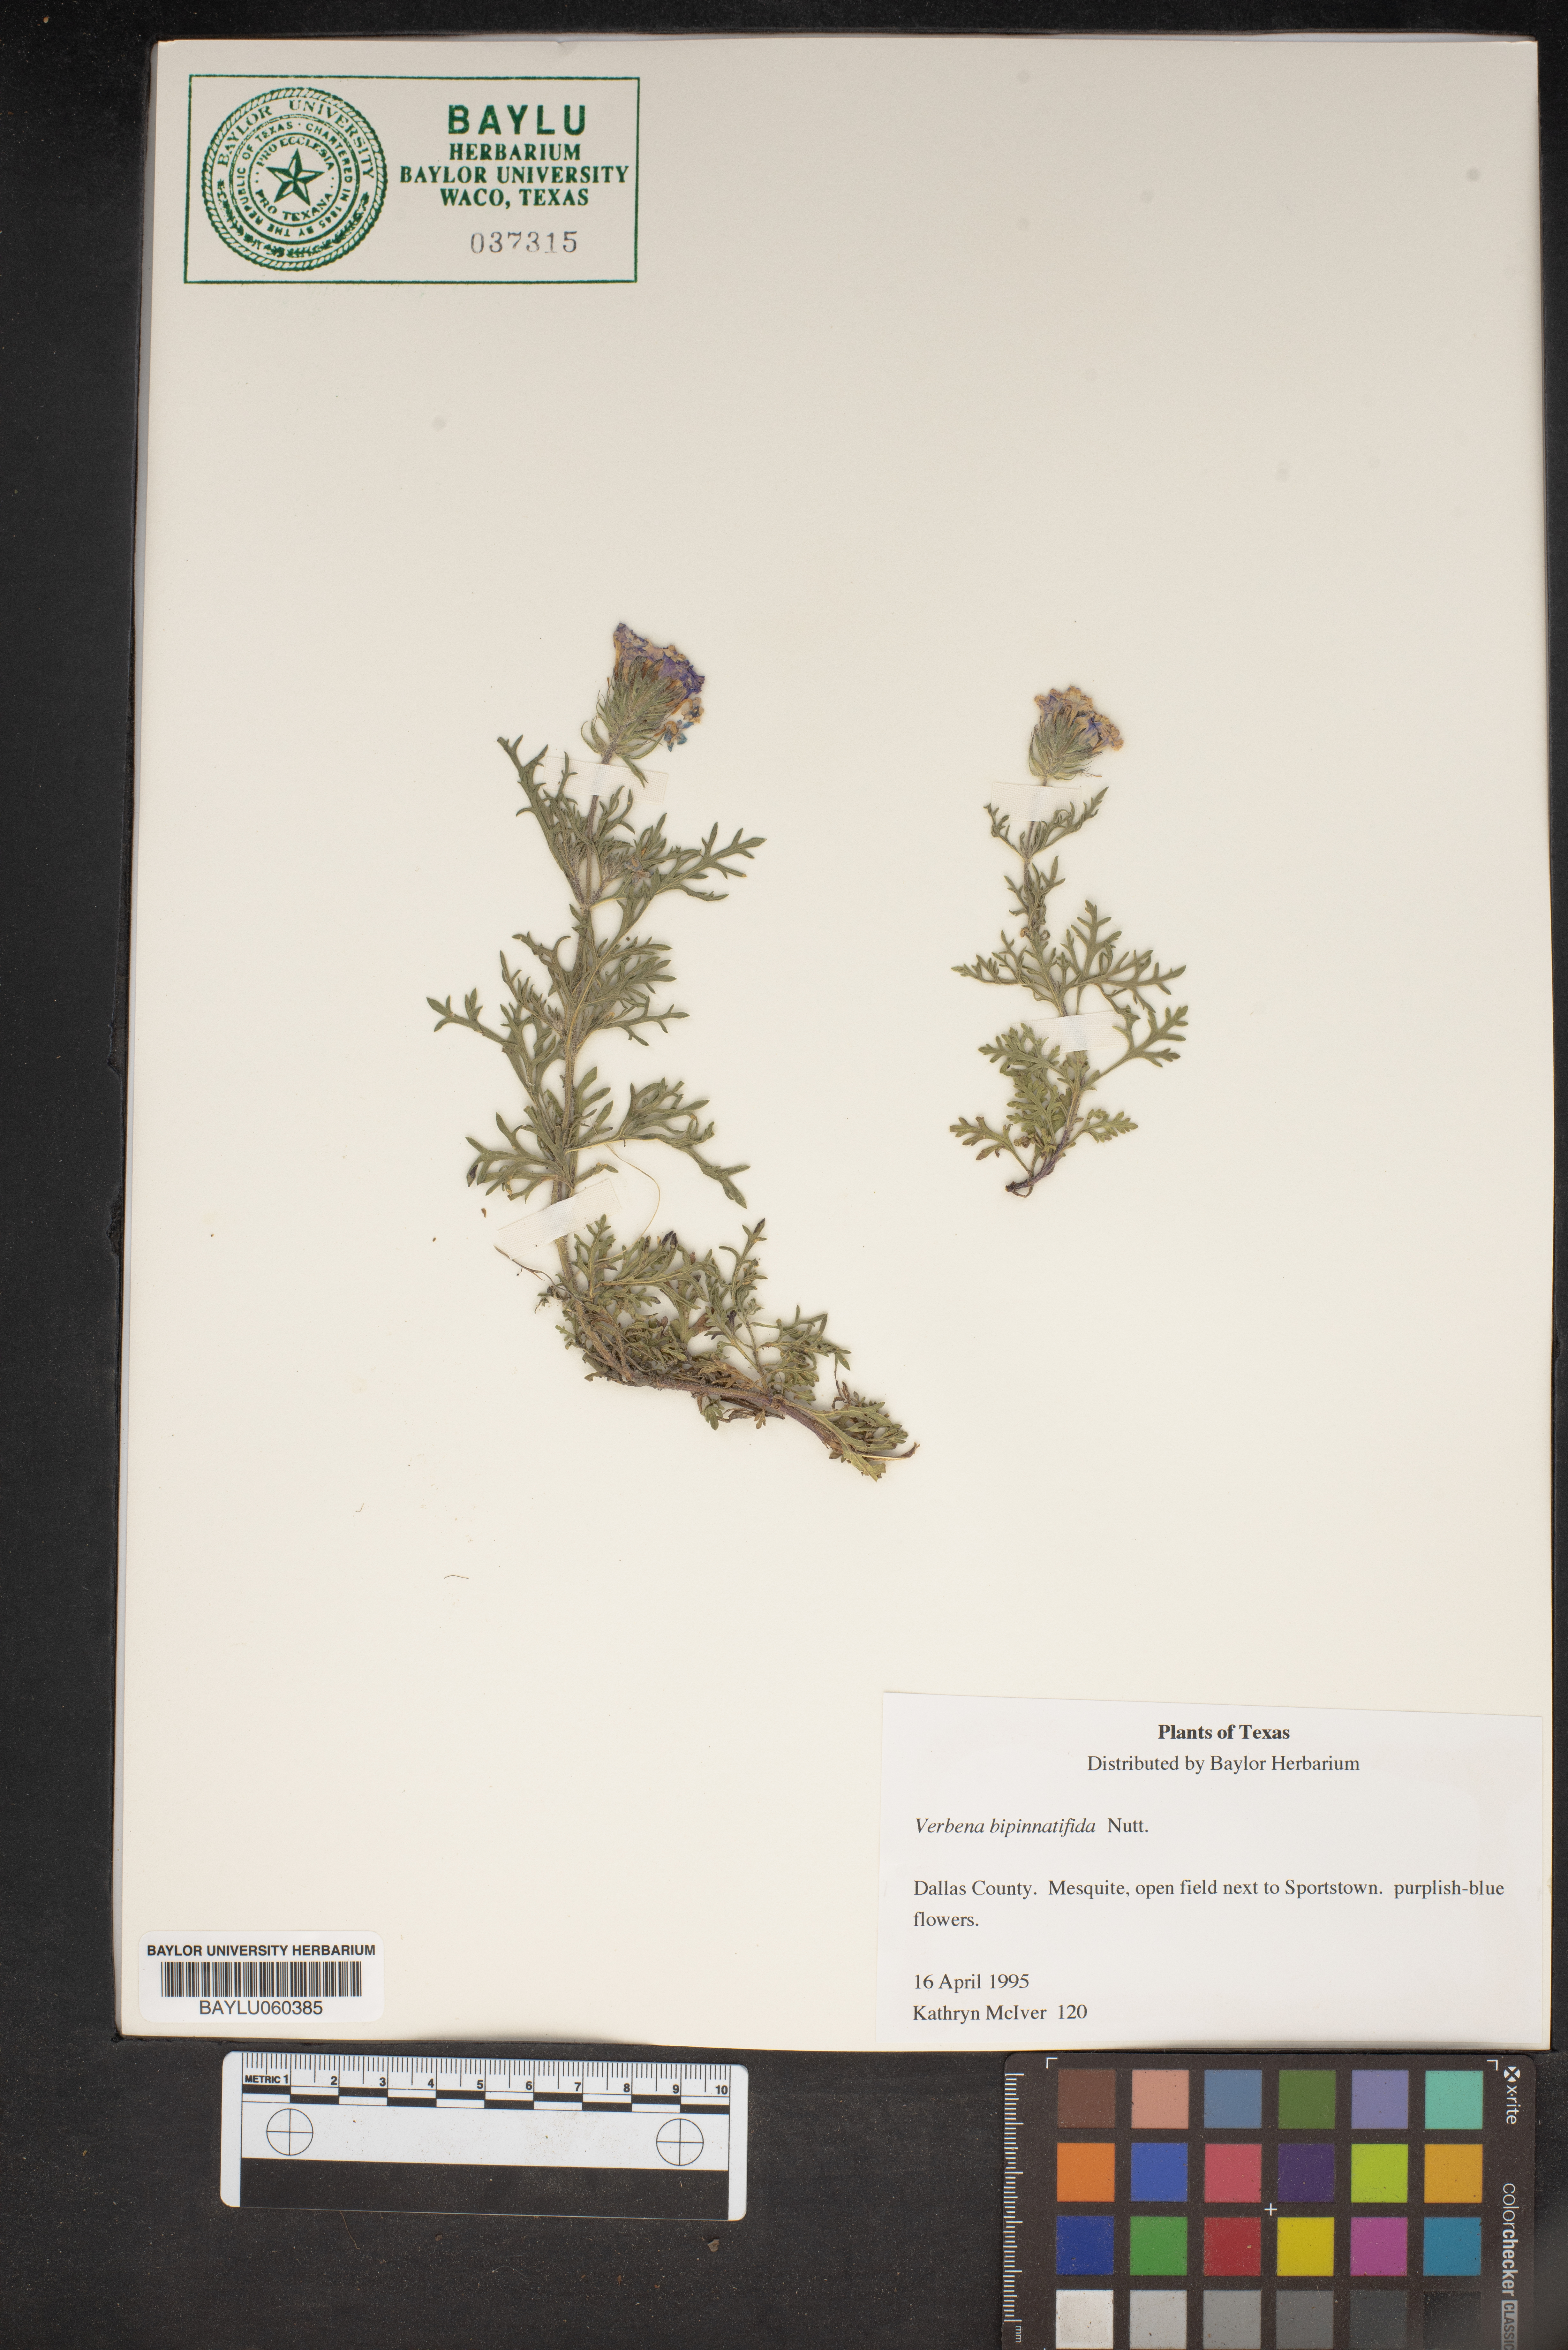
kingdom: Plantae
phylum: Tracheophyta
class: Magnoliopsida
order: Lamiales
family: Verbenaceae
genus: Verbena
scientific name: Verbena bipinnatifida
